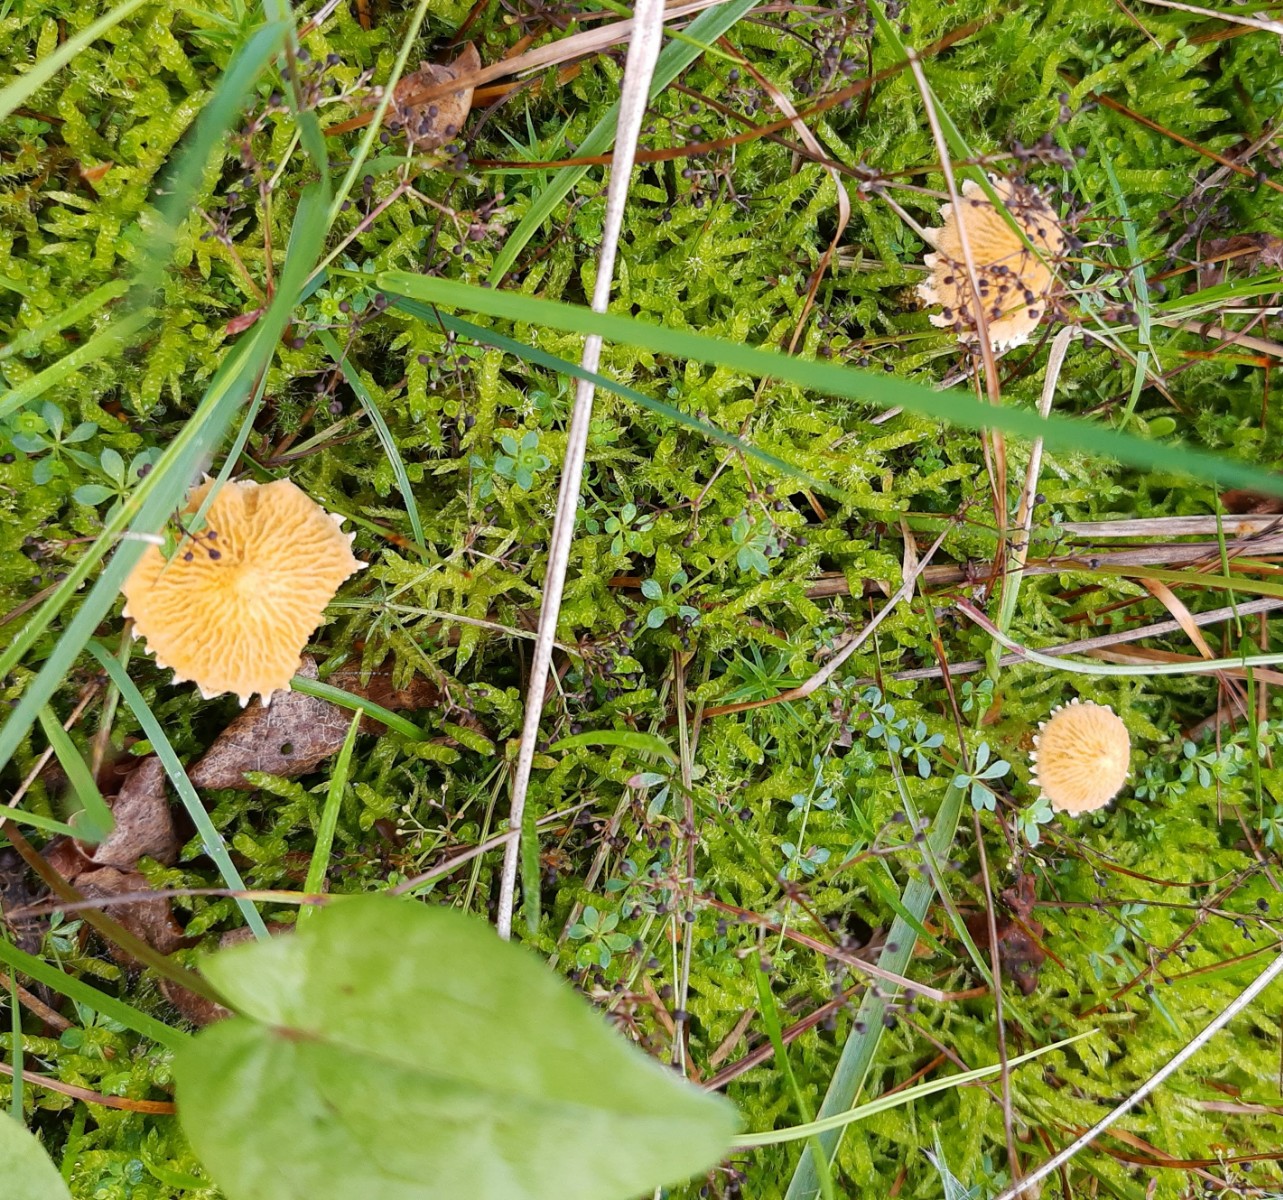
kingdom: Fungi
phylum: Basidiomycota
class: Agaricomycetes
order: Agaricales
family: Tricholomataceae
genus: Cystoderma
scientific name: Cystoderma amianthinum
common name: okkergul grynhat
